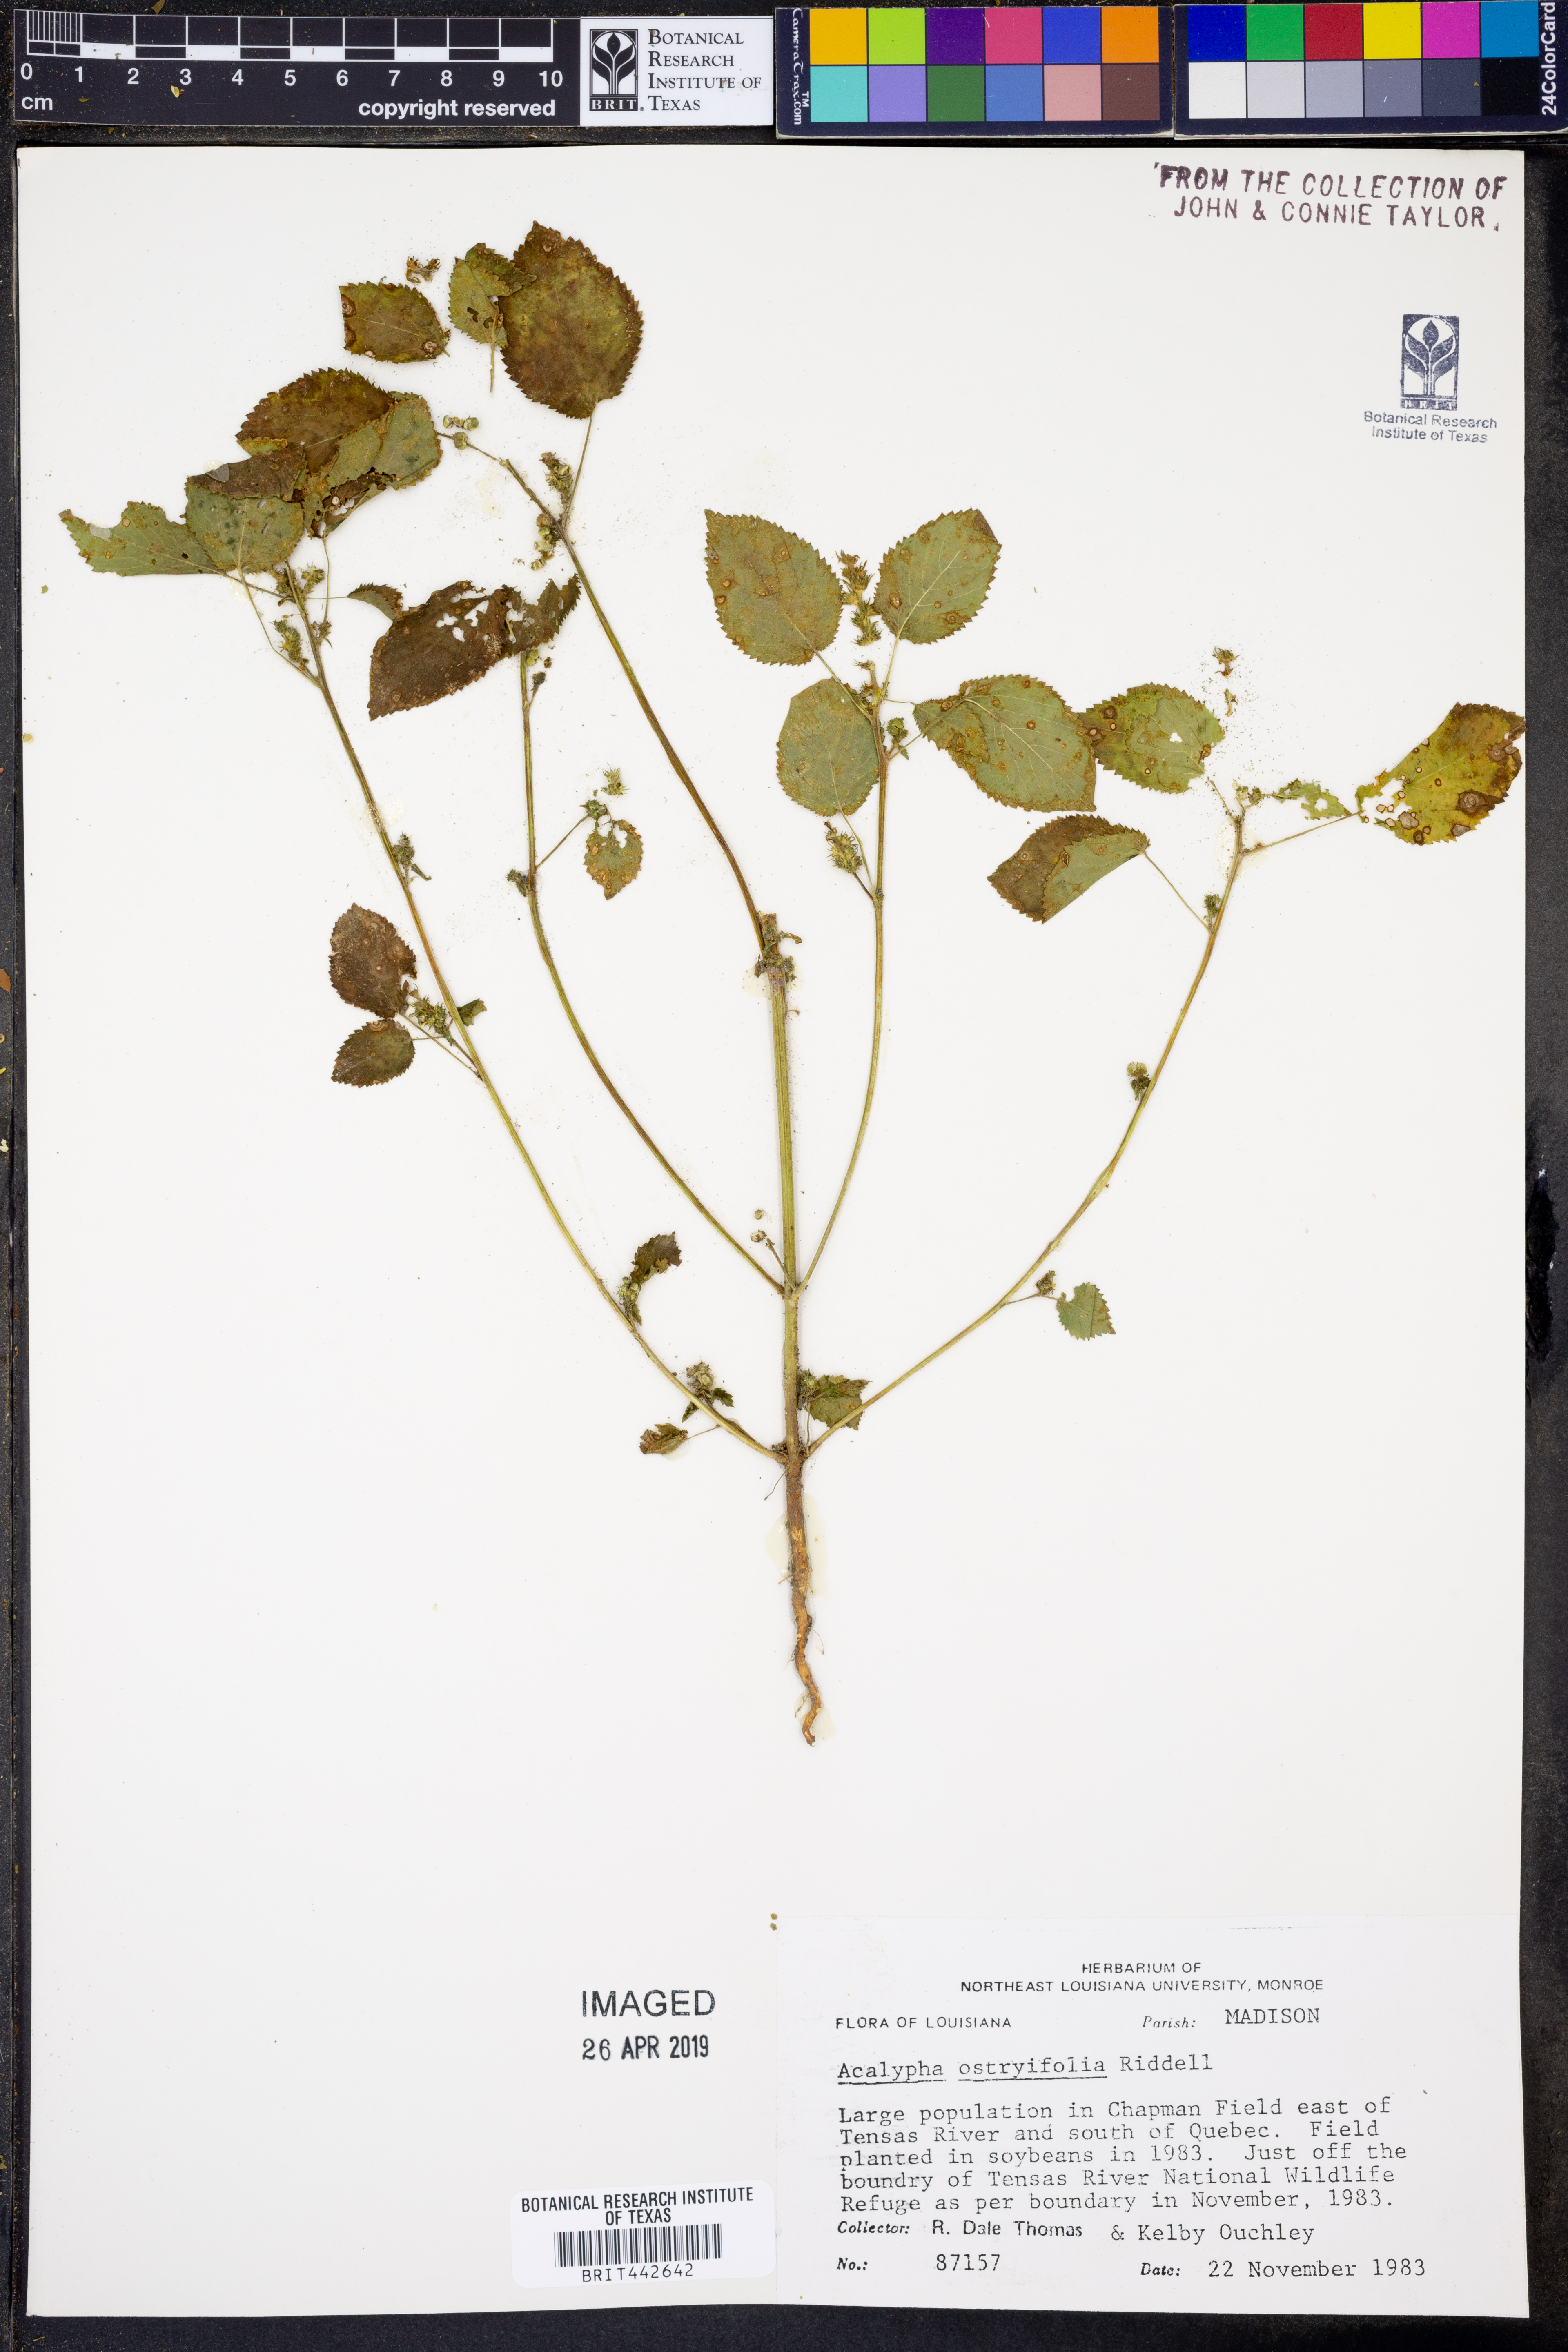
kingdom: Plantae
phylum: Tracheophyta
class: Magnoliopsida
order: Malpighiales
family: Euphorbiaceae
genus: Acalypha
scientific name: Acalypha persimilis
